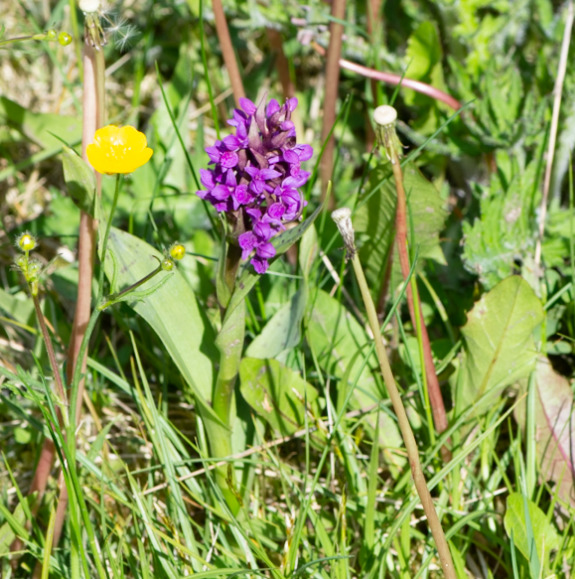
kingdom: Plantae
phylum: Tracheophyta
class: Liliopsida
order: Asparagales
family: Orchidaceae
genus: Dactylorhiza
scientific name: Dactylorhiza majalis
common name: Maj-gøgeurt
